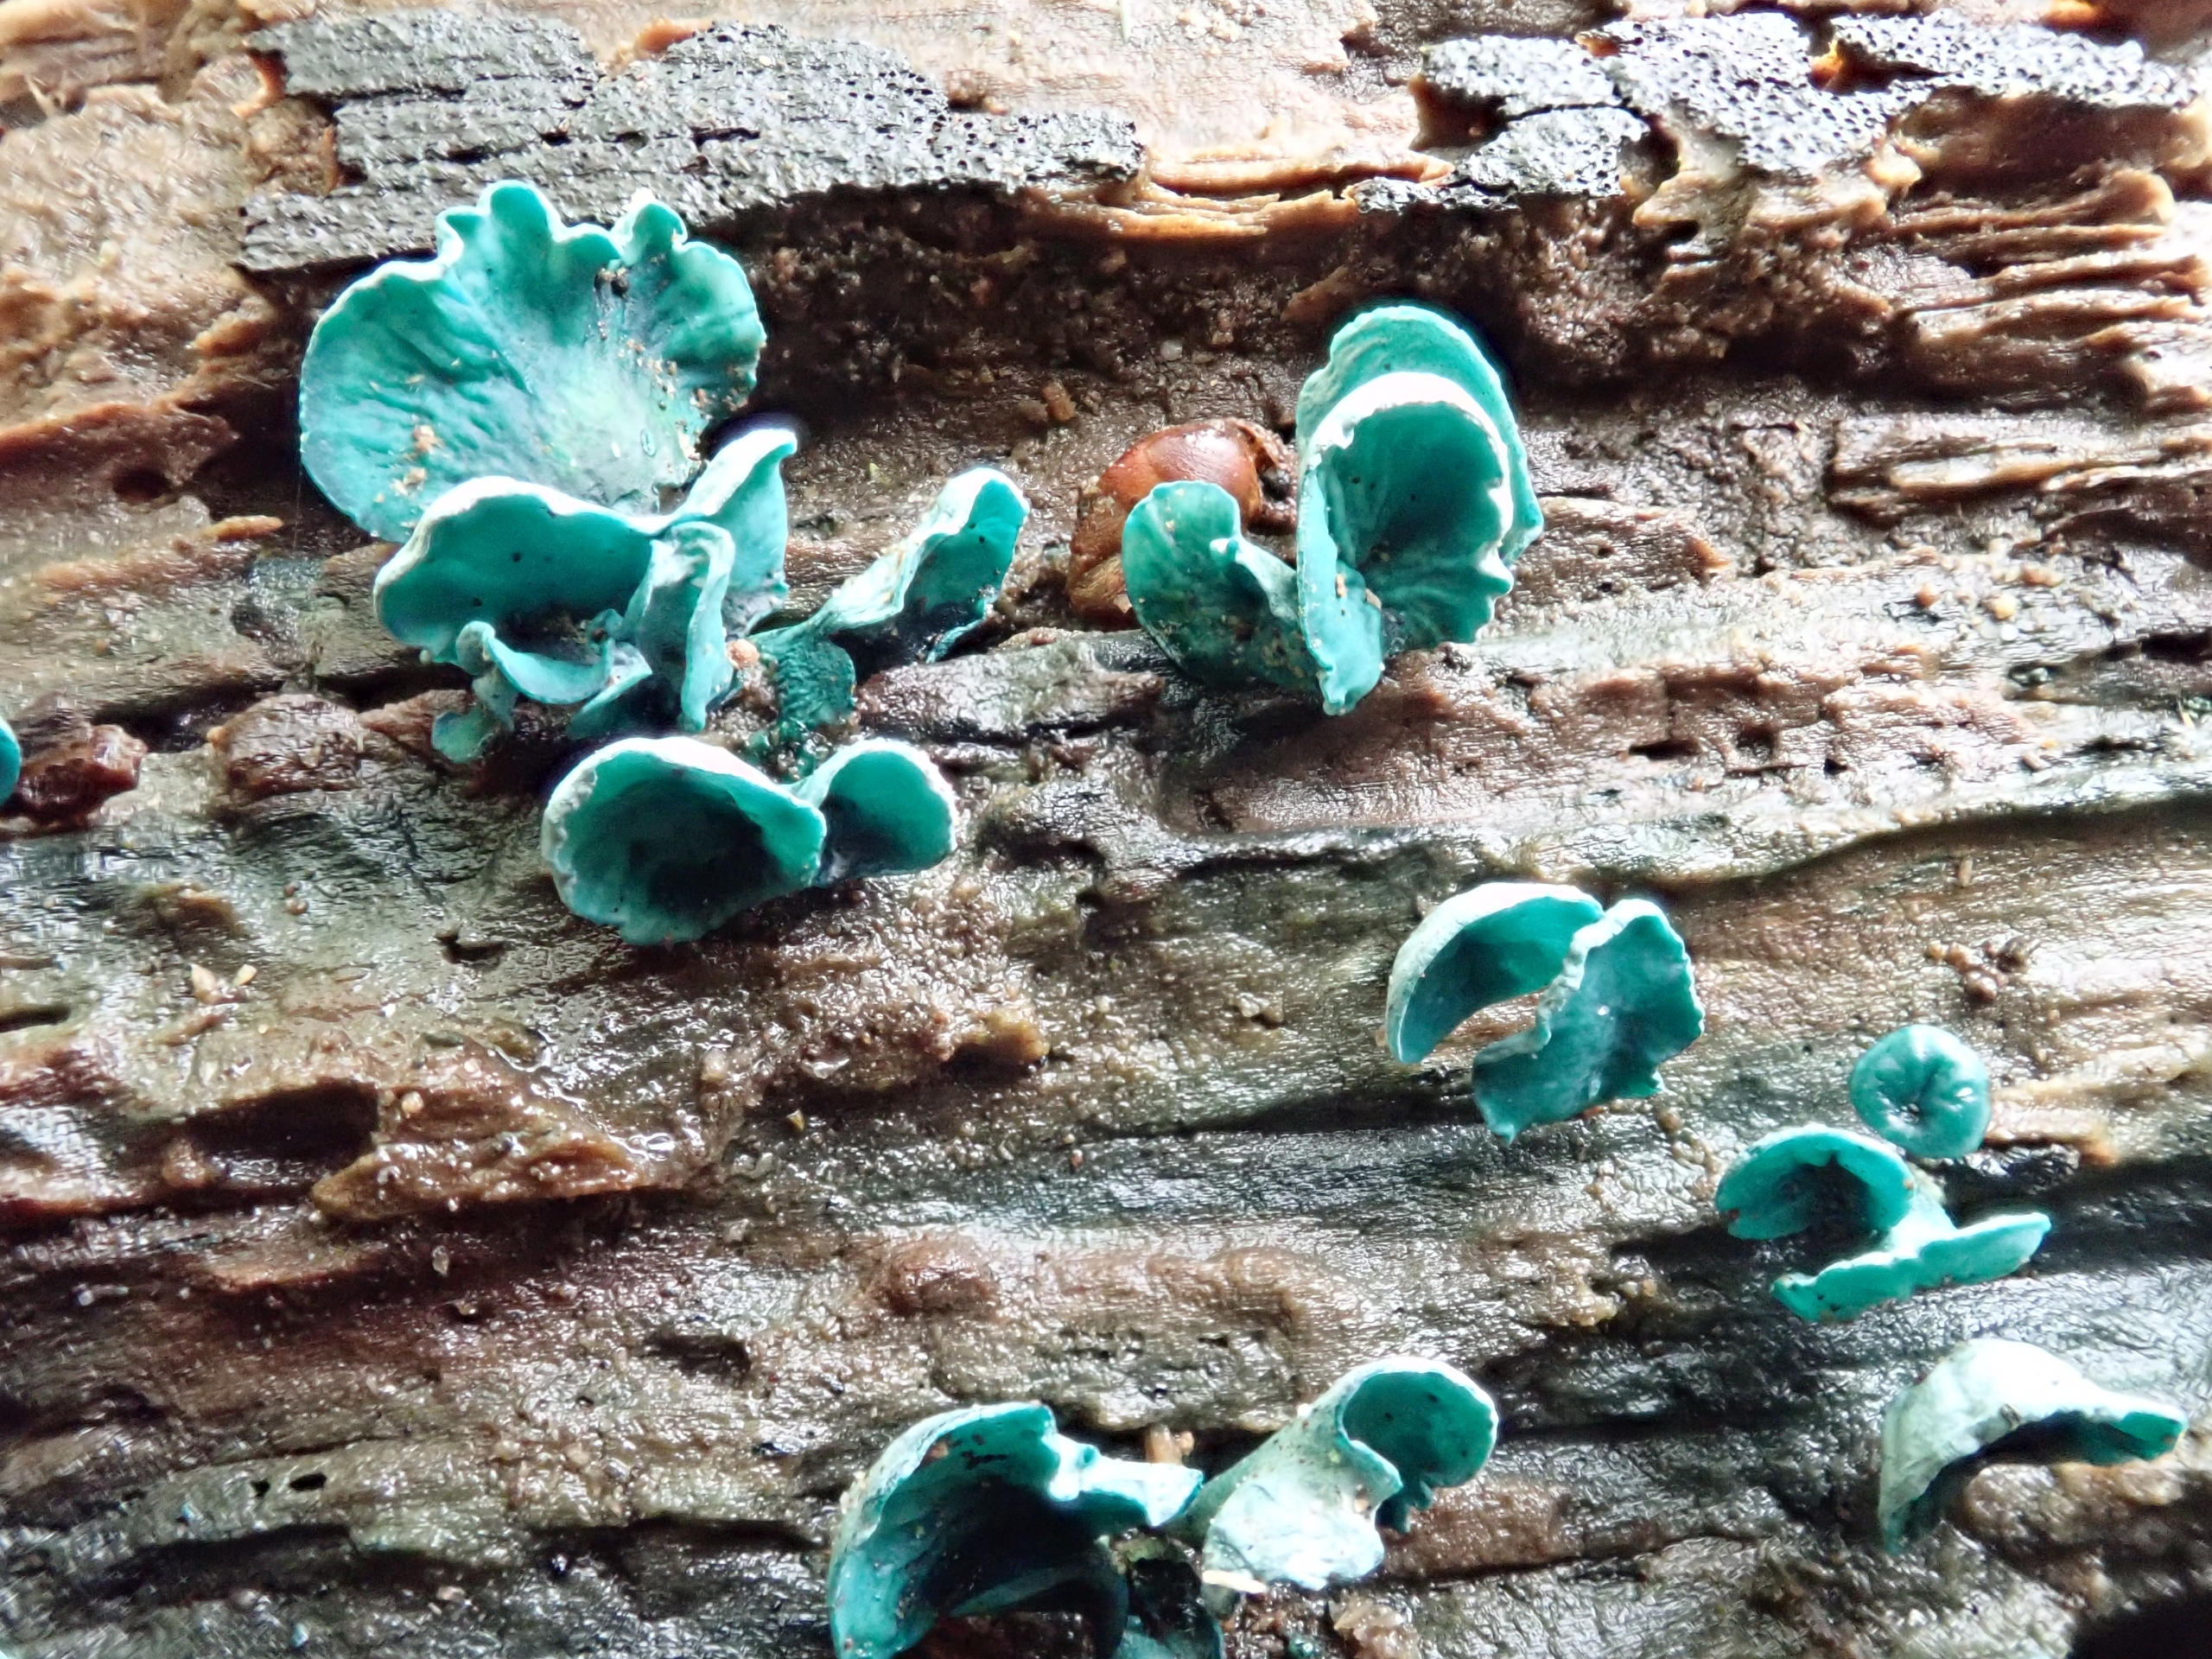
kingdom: Fungi
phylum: Ascomycota
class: Leotiomycetes
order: Helotiales
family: Chlorociboriaceae
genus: Chlorociboria
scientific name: Chlorociboria aeruginascens
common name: Almindelig grønskive
